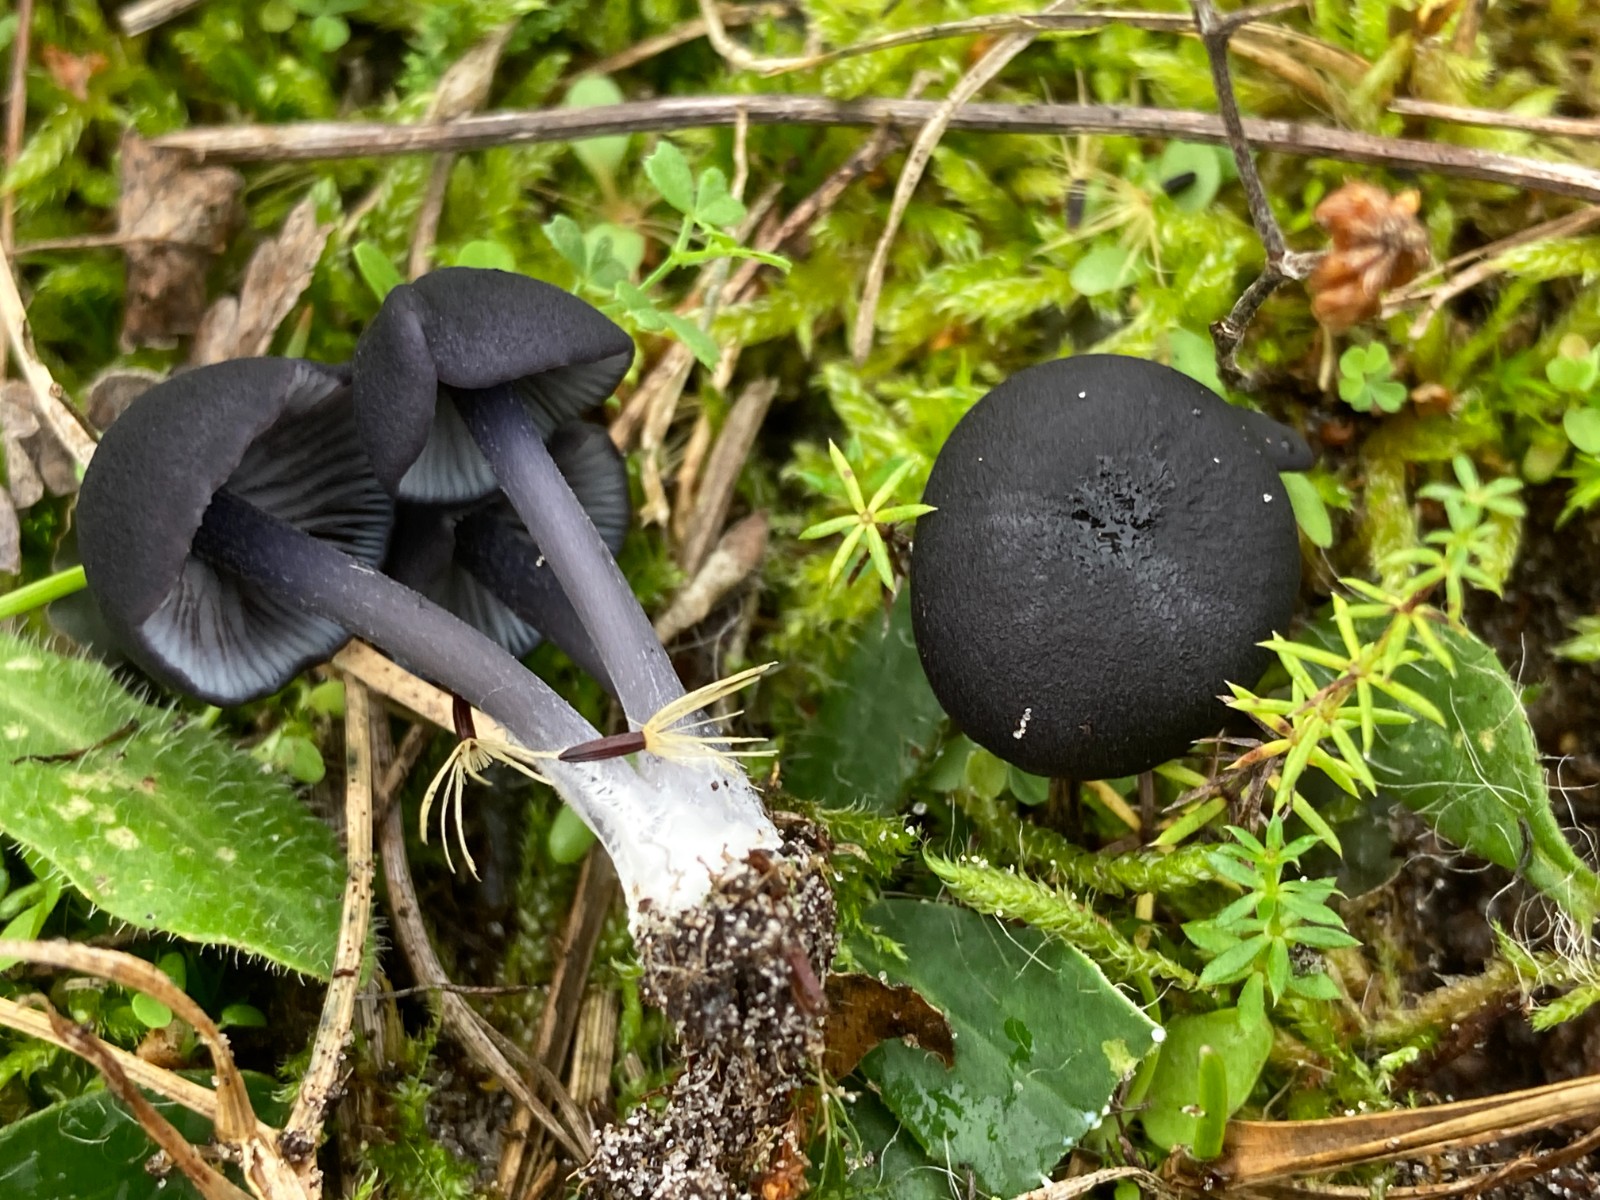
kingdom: Fungi
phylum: Basidiomycota
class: Agaricomycetes
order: Agaricales
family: Entolomataceae
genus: Entoloma
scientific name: Entoloma
